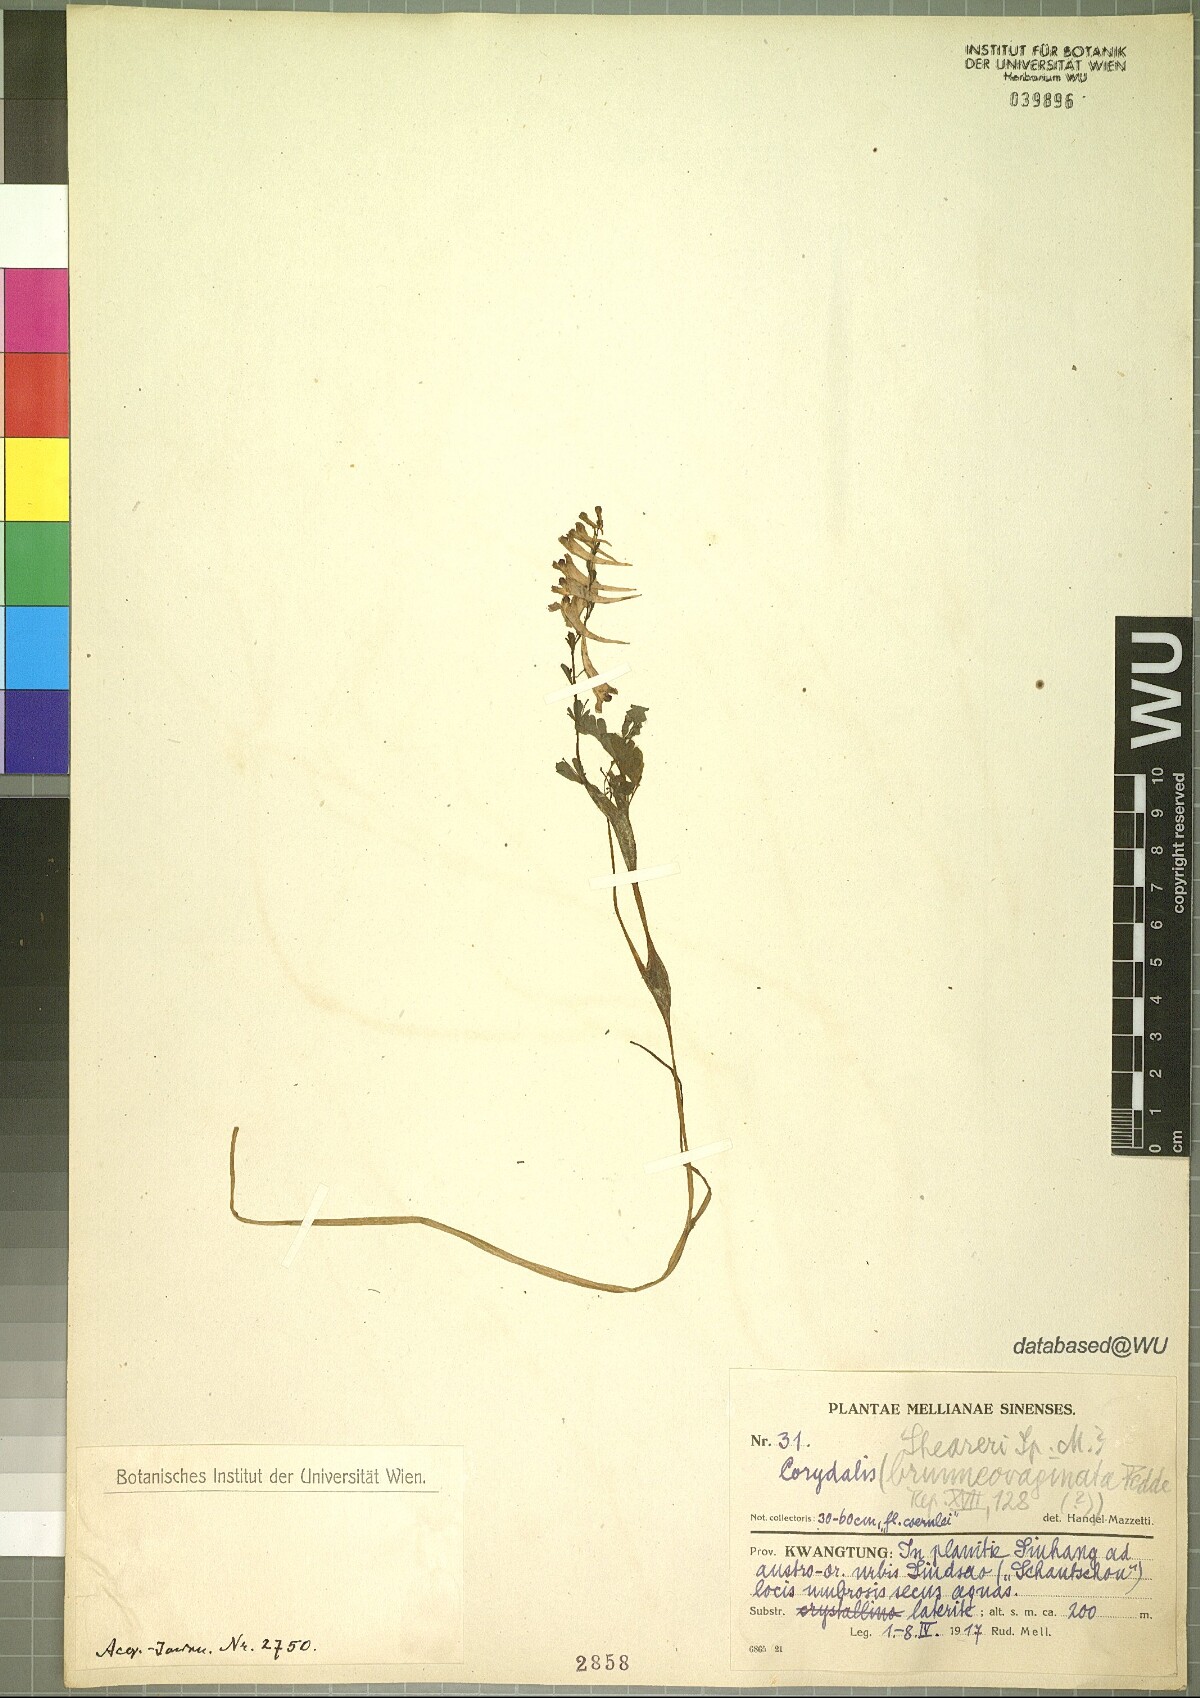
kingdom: Plantae
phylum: Tracheophyta
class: Magnoliopsida
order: Ranunculales
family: Papaveraceae
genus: Corydalis
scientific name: Corydalis sheareri
